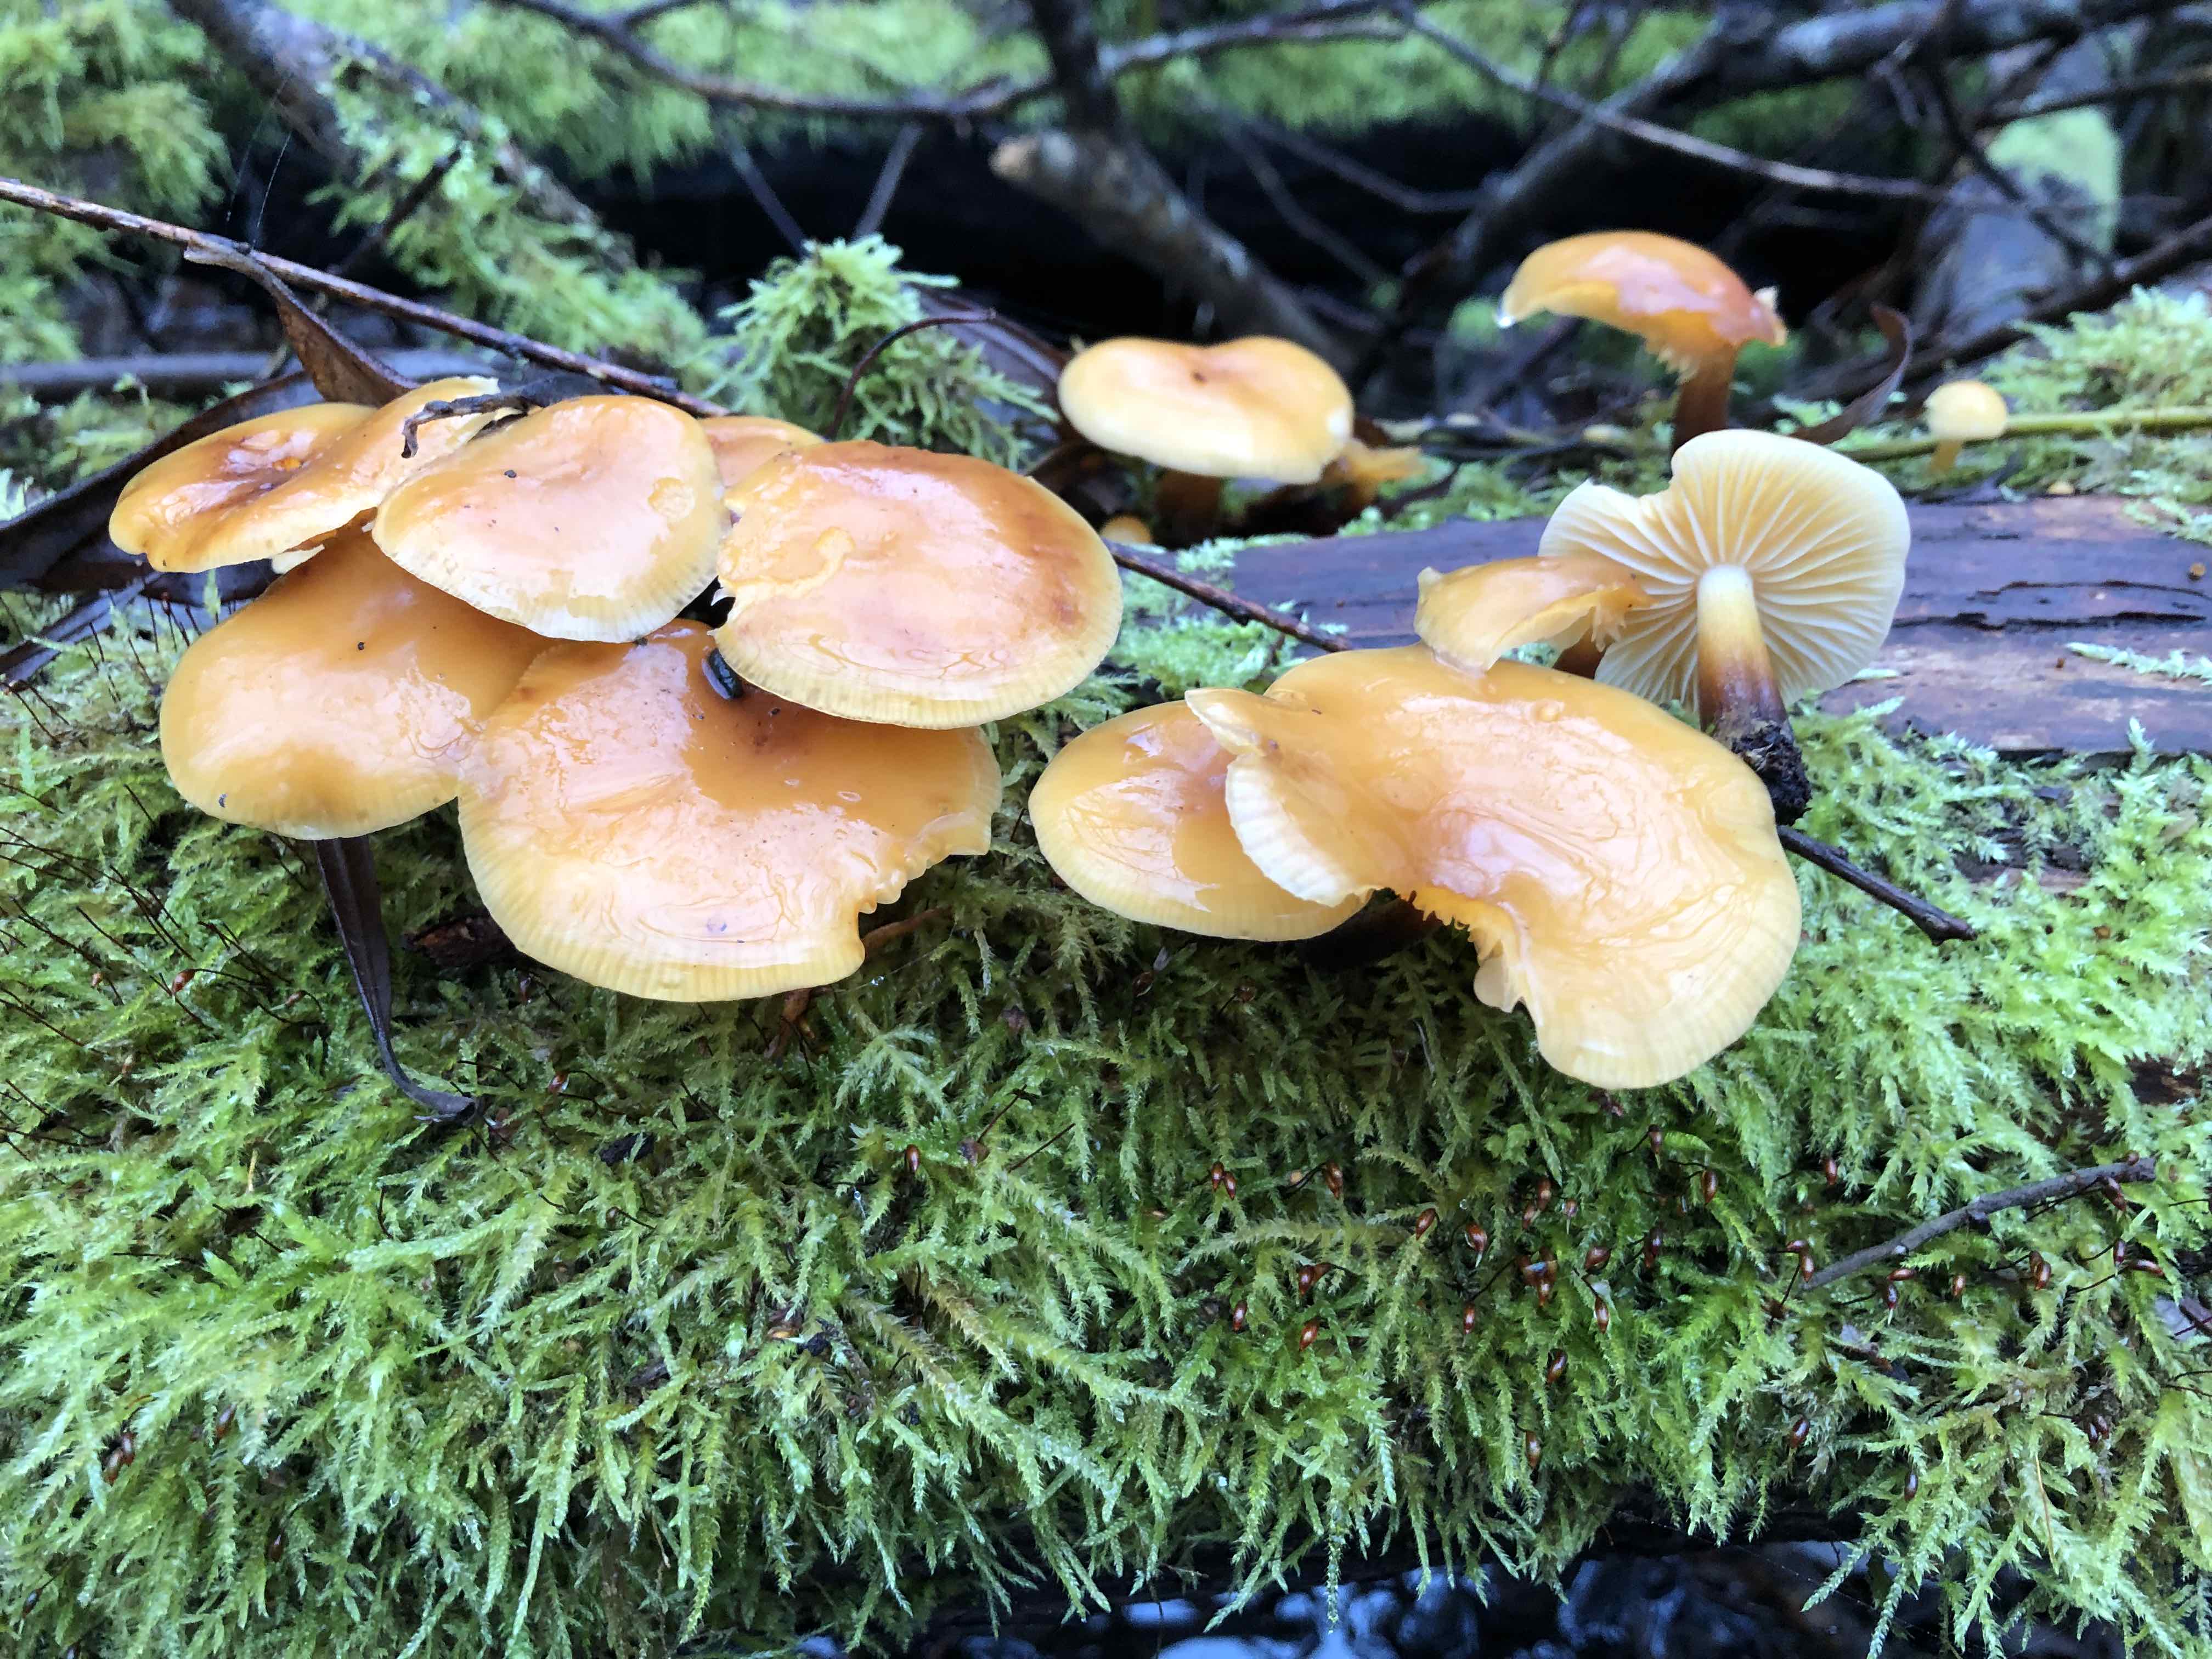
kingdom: Fungi
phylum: Basidiomycota
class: Agaricomycetes
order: Agaricales
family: Physalacriaceae
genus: Flammulina
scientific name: Flammulina
